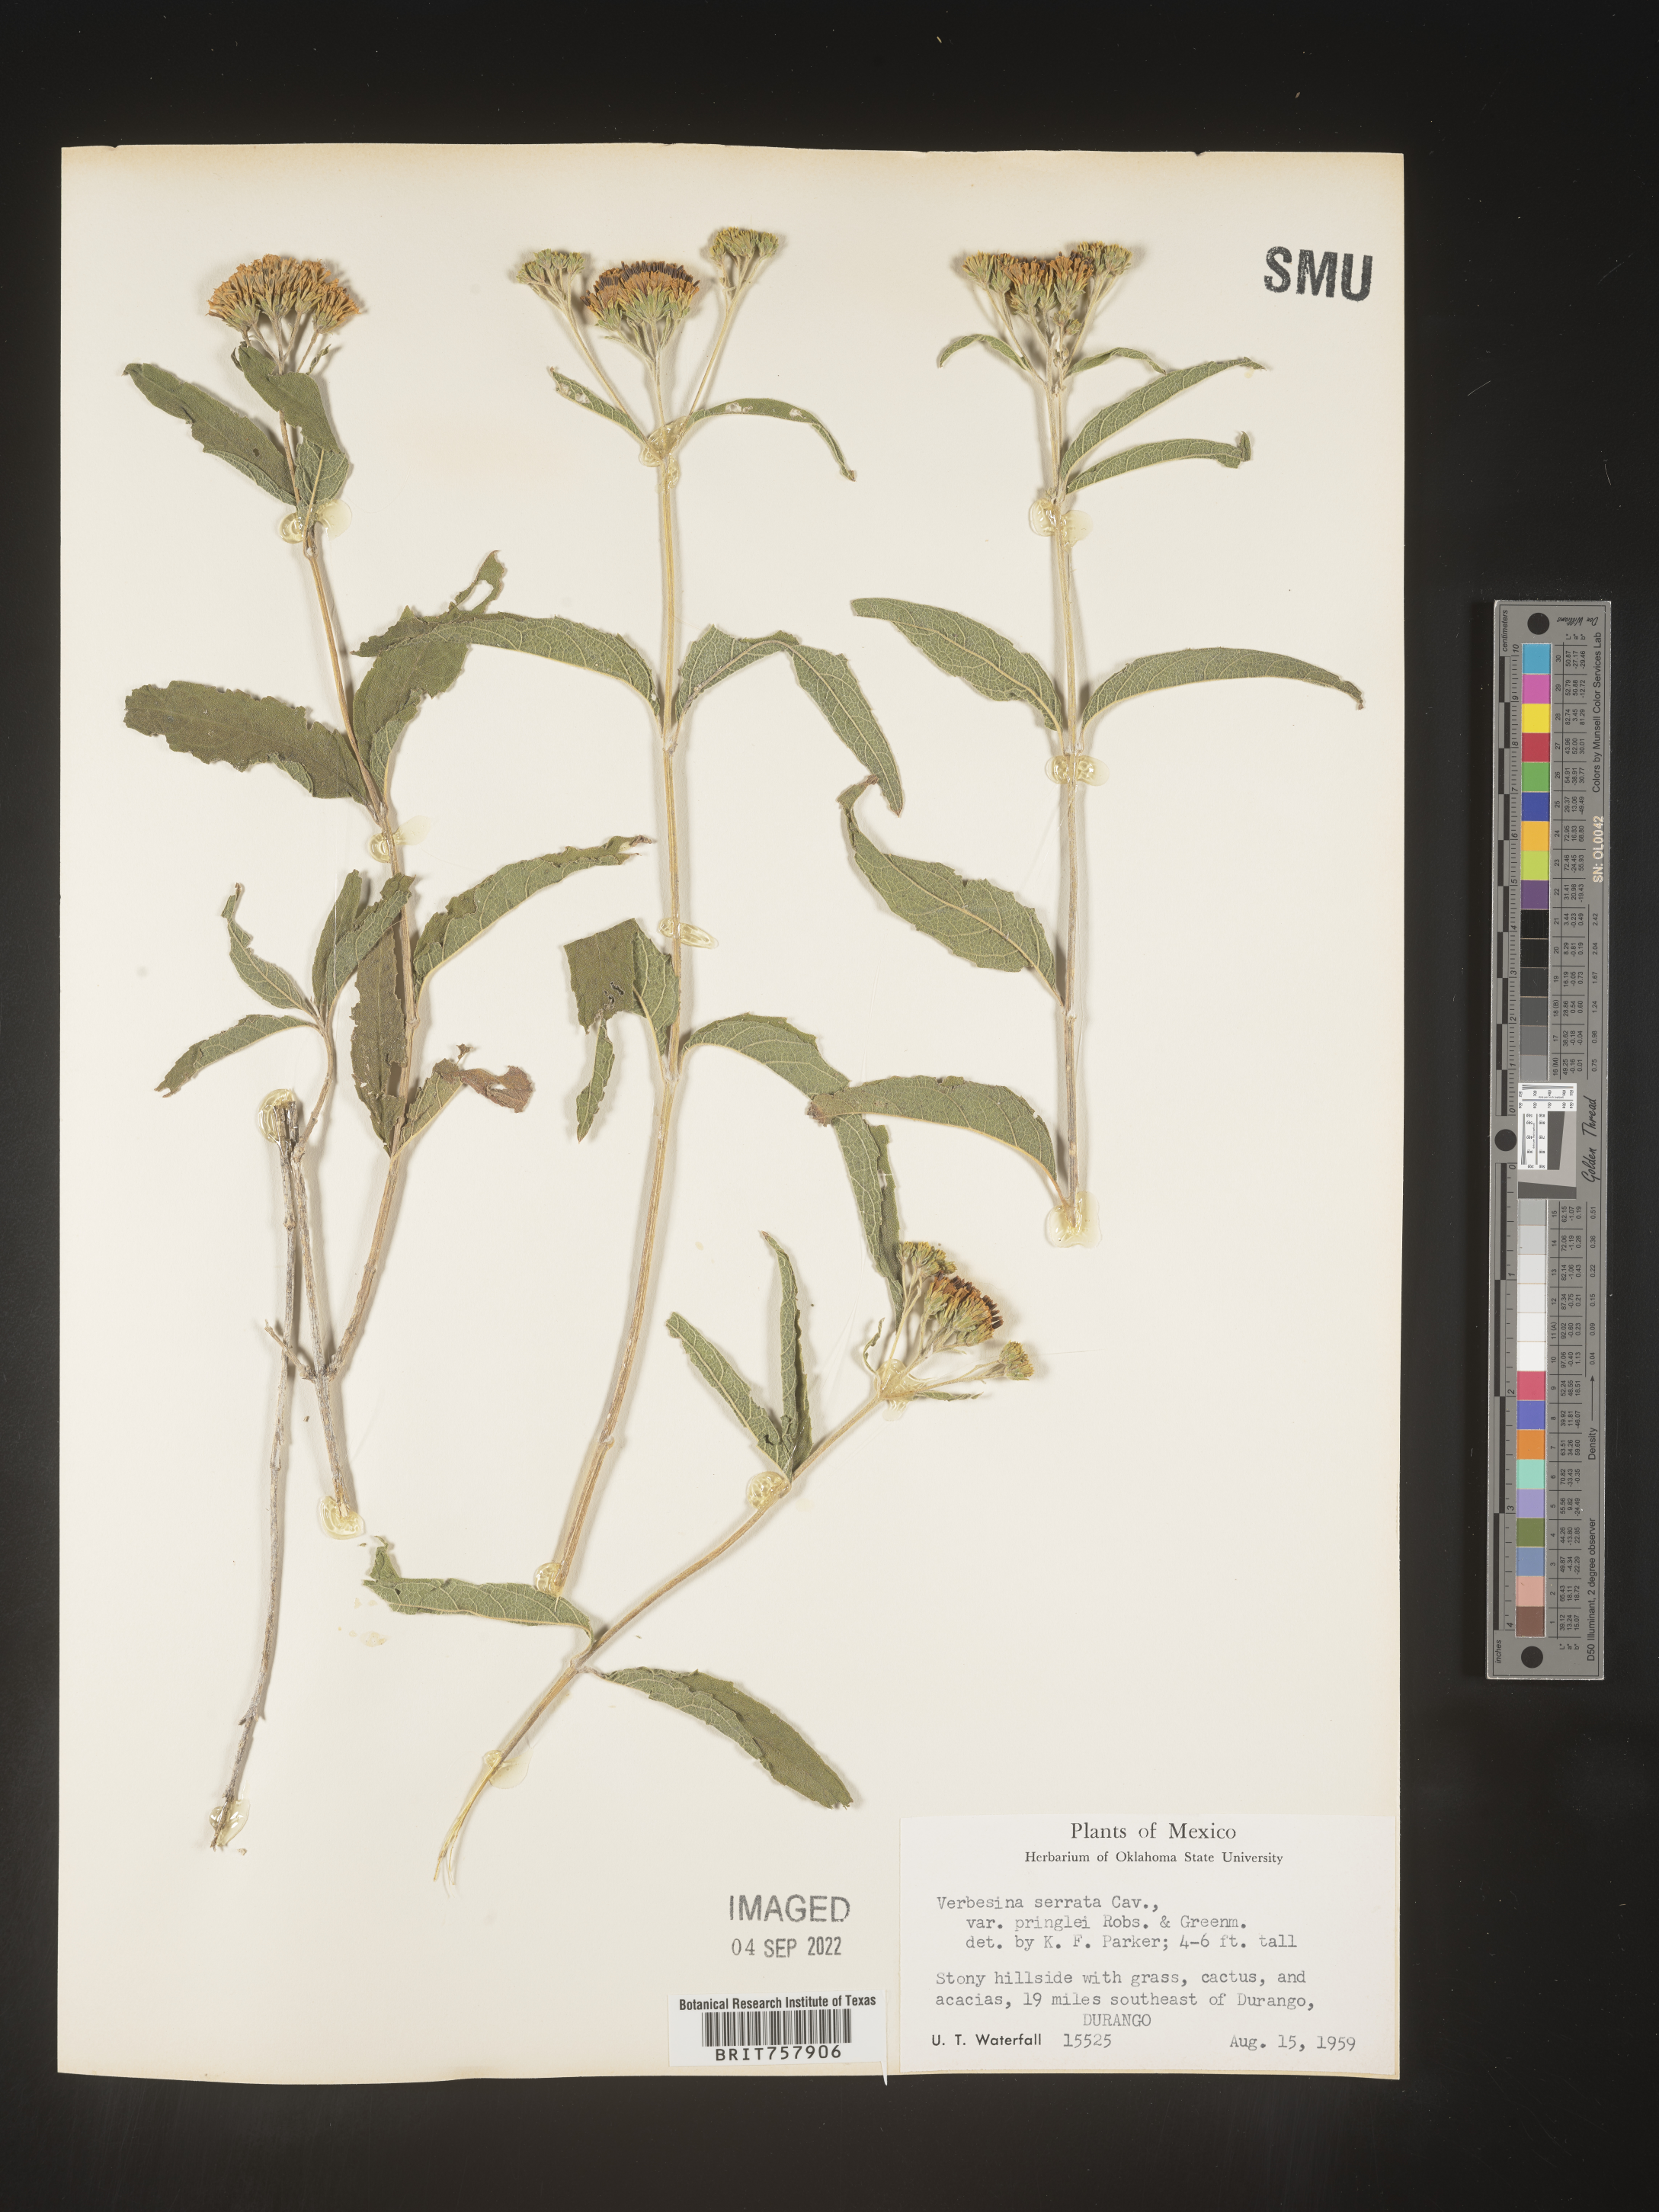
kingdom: Plantae
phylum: Tracheophyta
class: Magnoliopsida
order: Asterales
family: Asteraceae
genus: Verbesina
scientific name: Verbesina
